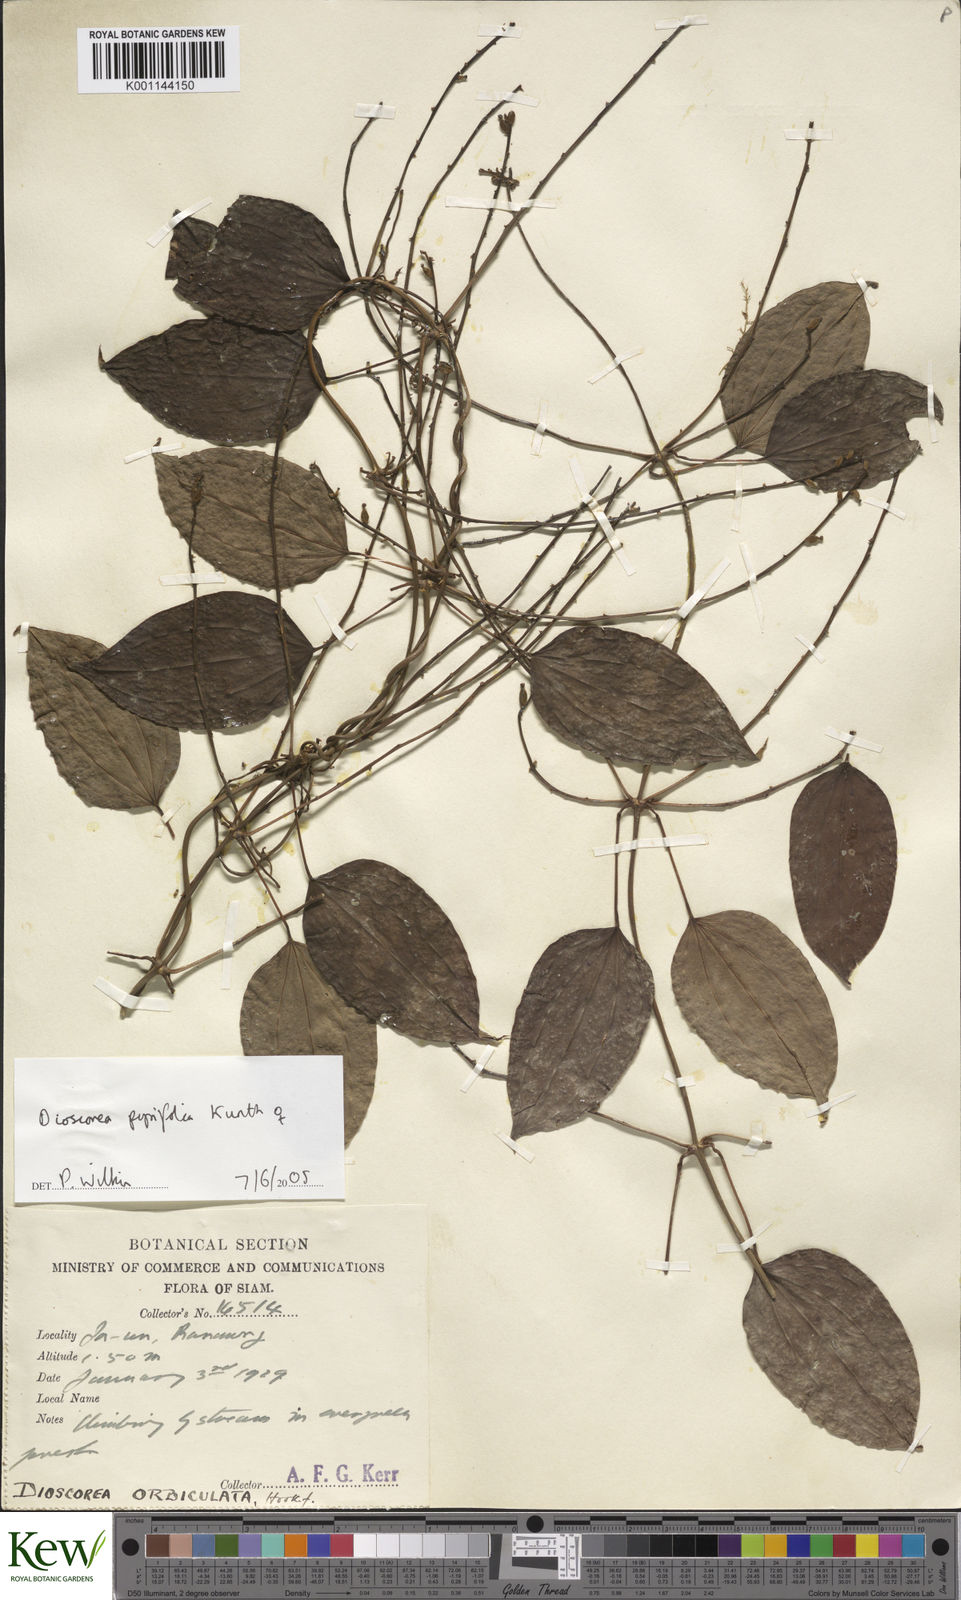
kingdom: Plantae
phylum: Tracheophyta
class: Liliopsida
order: Dioscoreales
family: Dioscoreaceae
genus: Dioscorea
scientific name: Dioscorea pyrifolia
